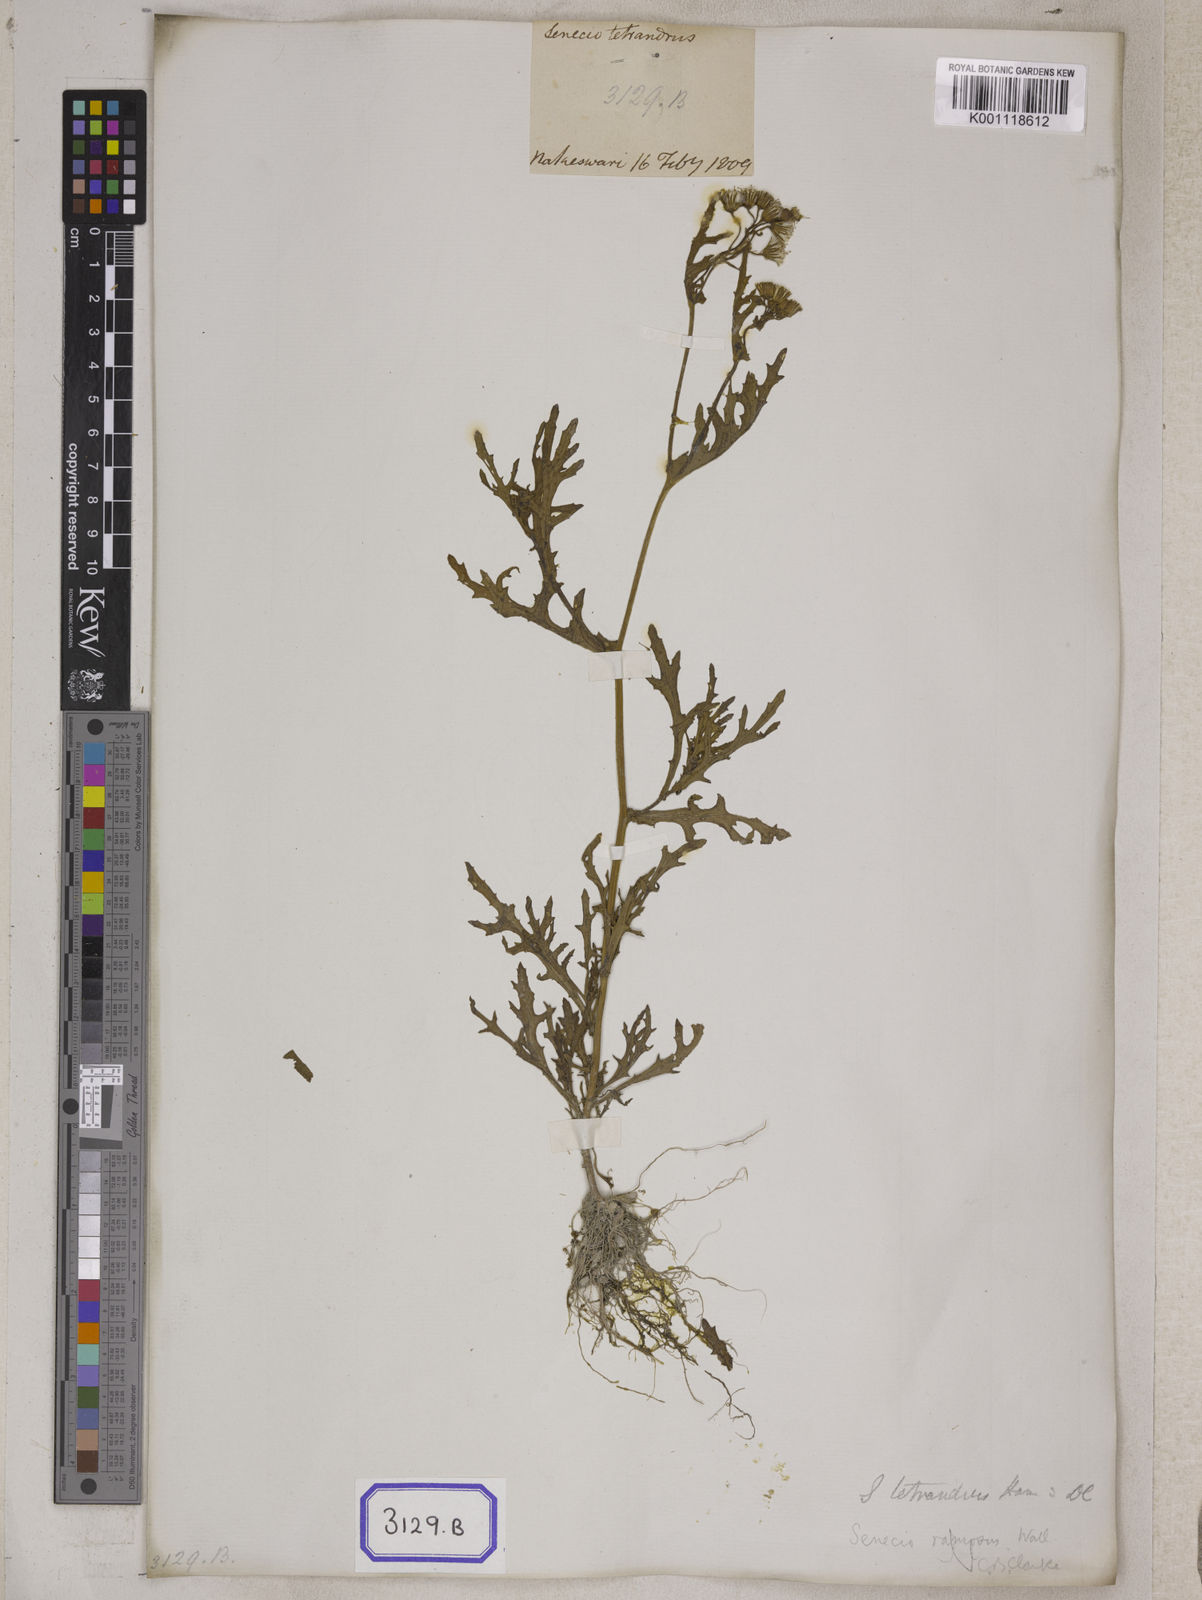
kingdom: Plantae
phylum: Tracheophyta
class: Magnoliopsida
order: Asterales
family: Asteraceae
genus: Senecio
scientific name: Senecio ramosus
